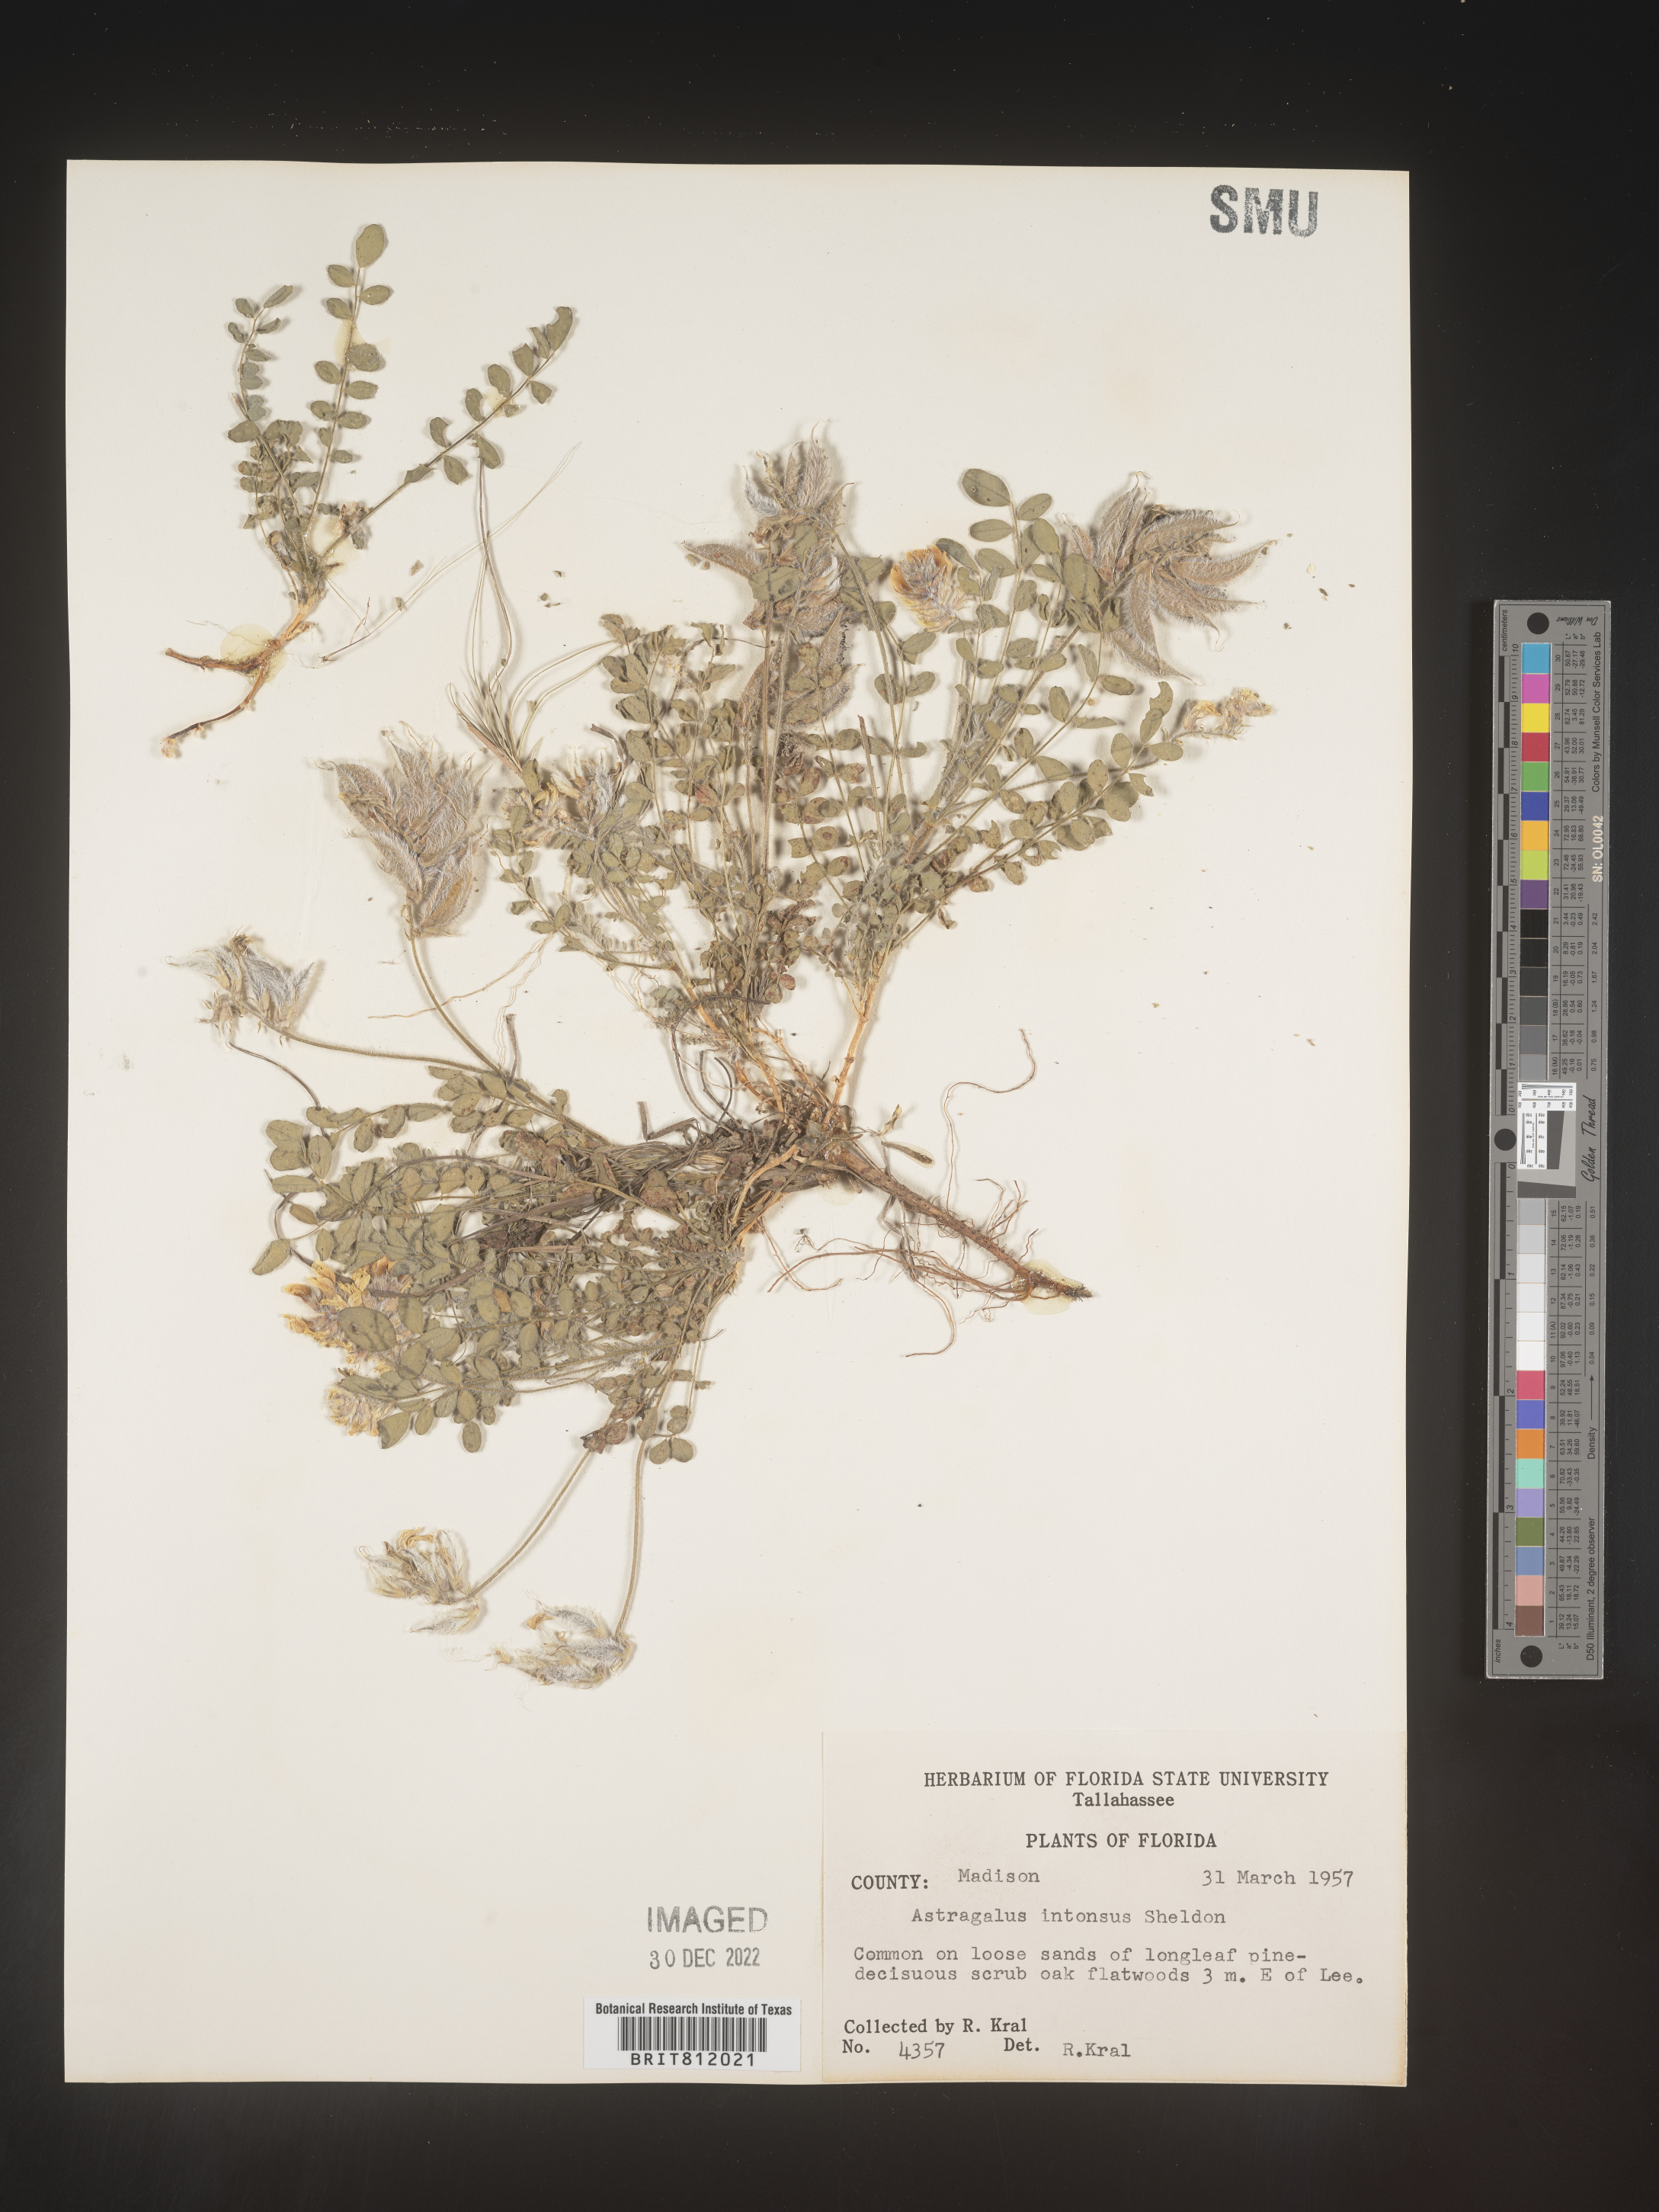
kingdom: Plantae
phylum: Tracheophyta
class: Magnoliopsida
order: Fabales
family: Fabaceae
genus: Astragalus
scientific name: Astragalus villosus
